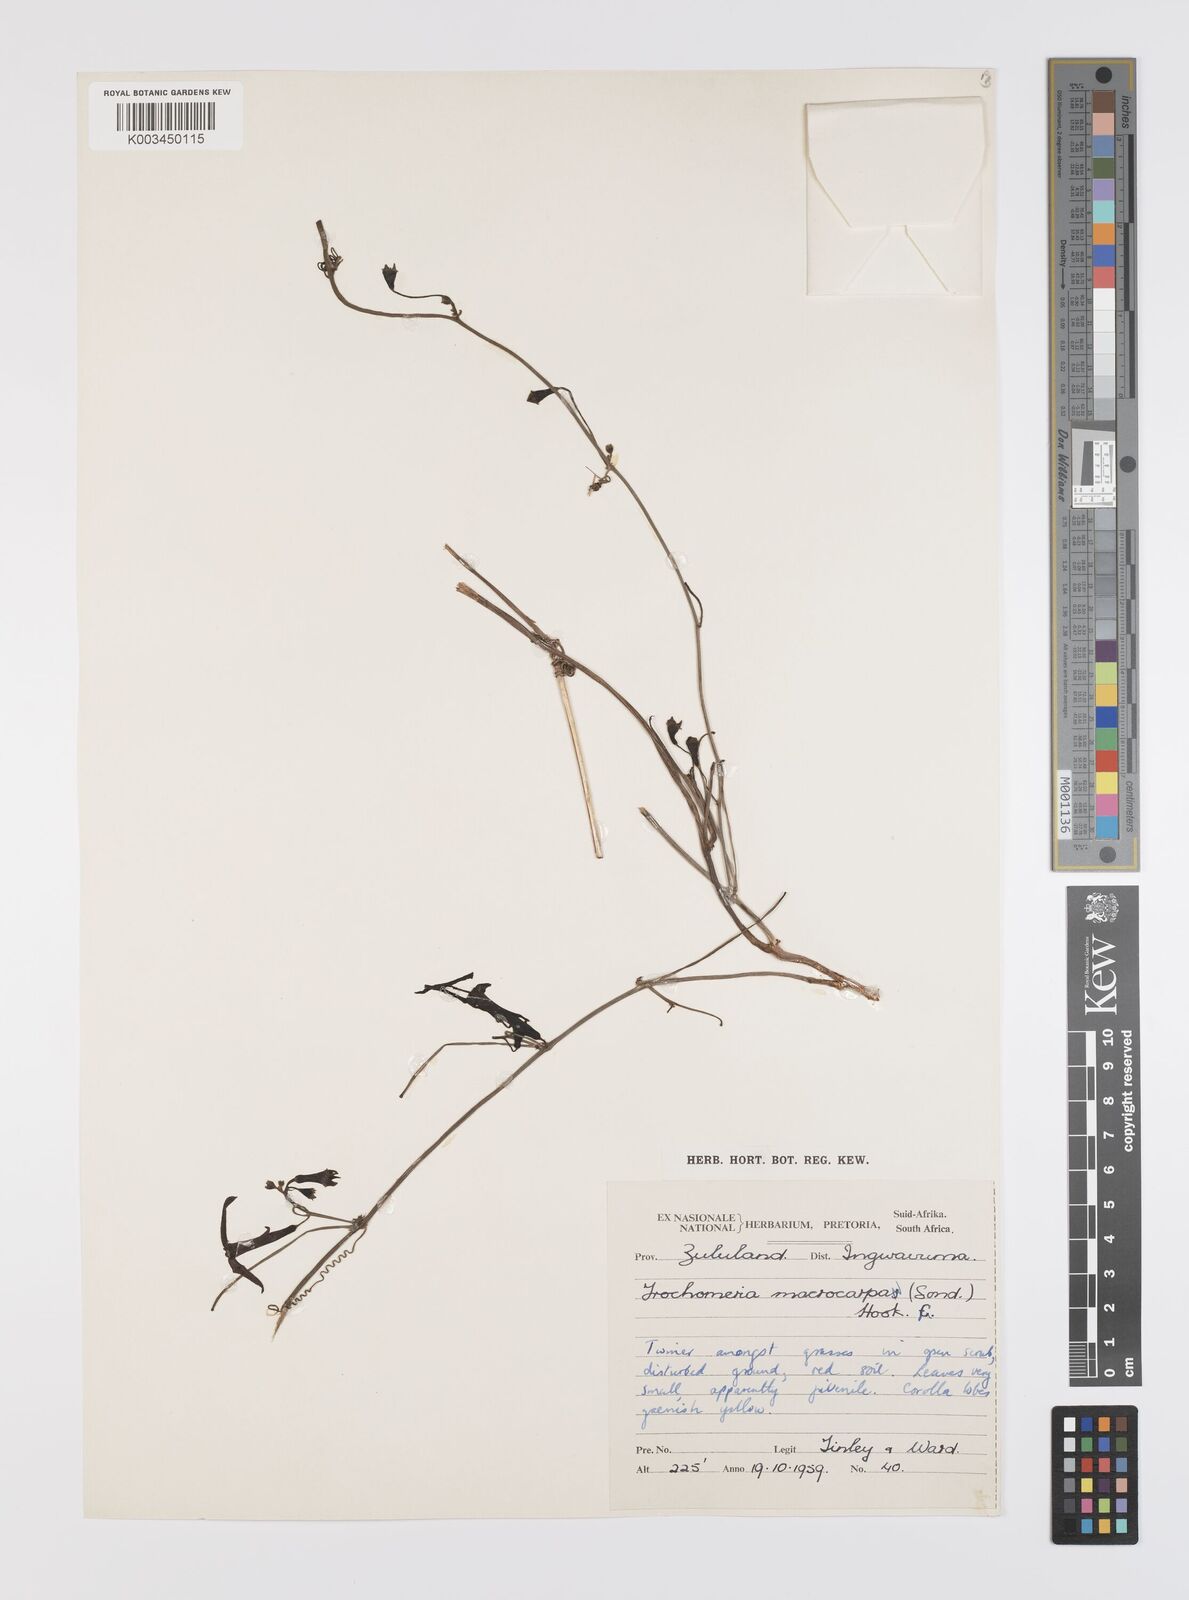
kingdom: Plantae
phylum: Tracheophyta
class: Magnoliopsida
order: Cucurbitales
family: Cucurbitaceae
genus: Trochomeria
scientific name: Trochomeria hookeri
